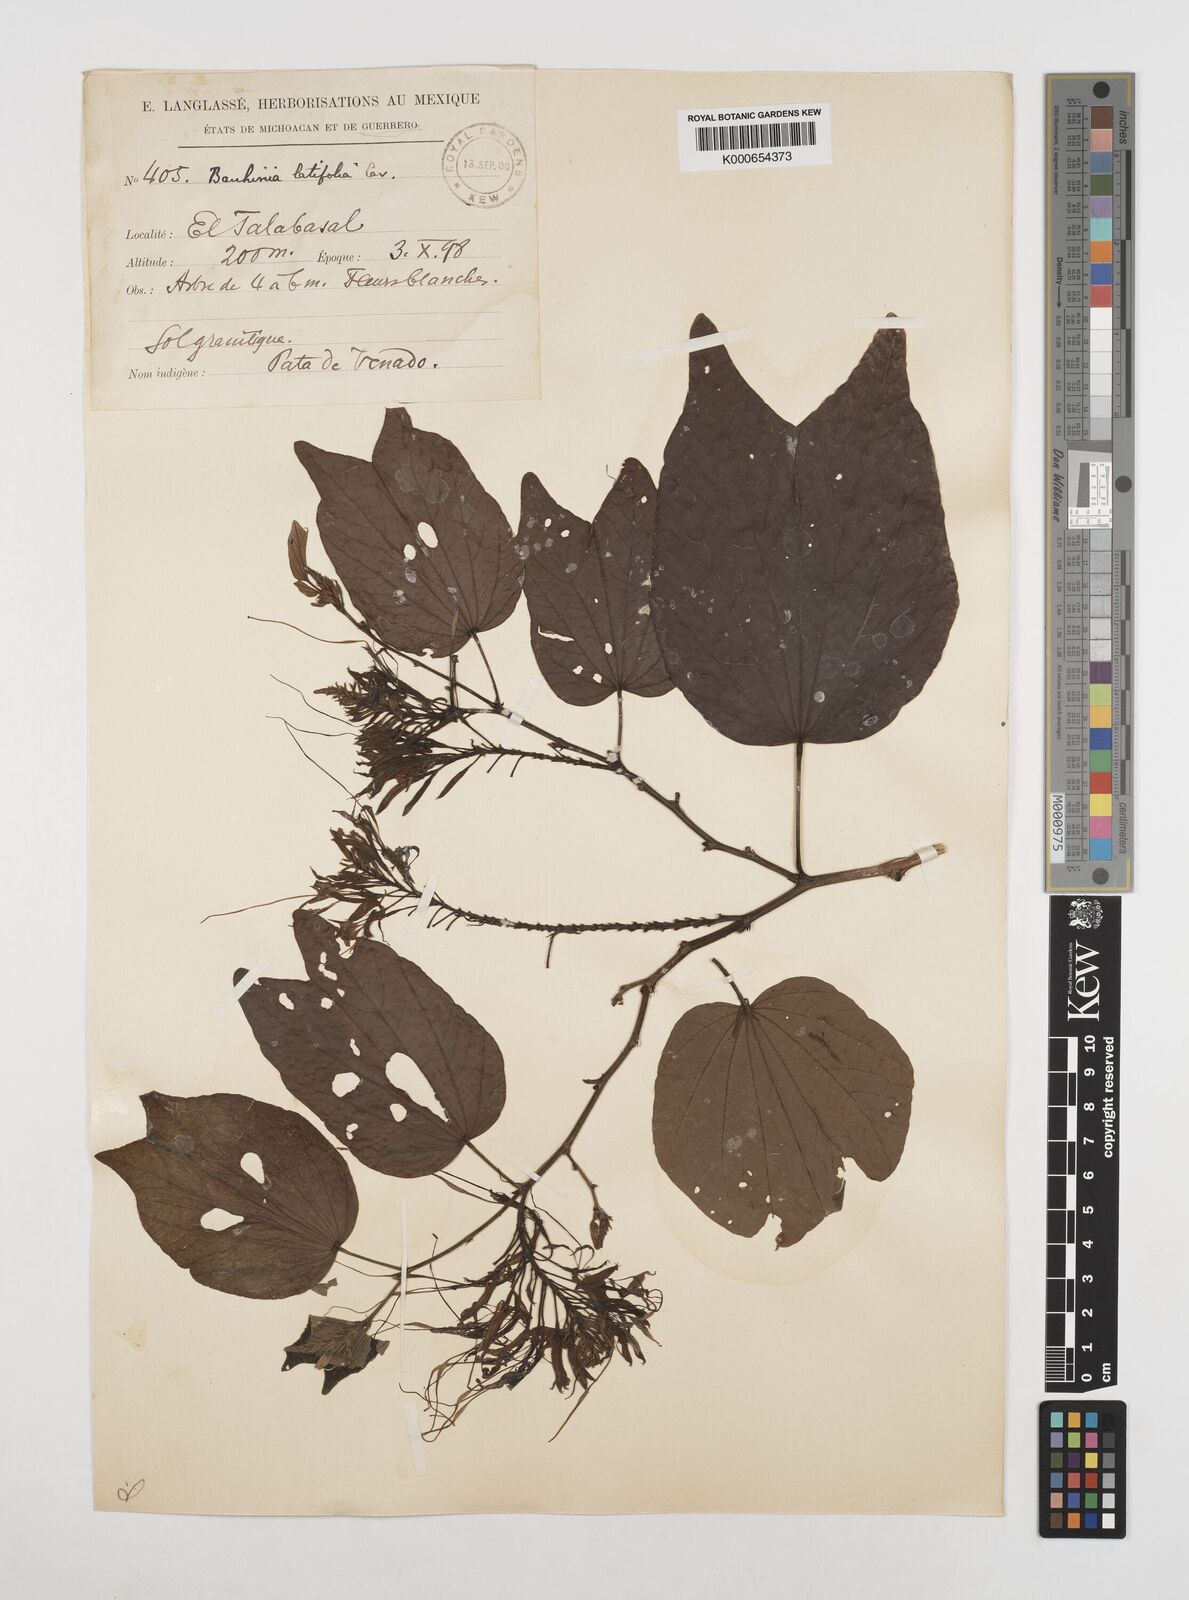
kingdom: Plantae
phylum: Tracheophyta
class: Magnoliopsida
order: Fabales
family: Fabaceae
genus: Bauhinia
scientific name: Bauhinia divaricata
